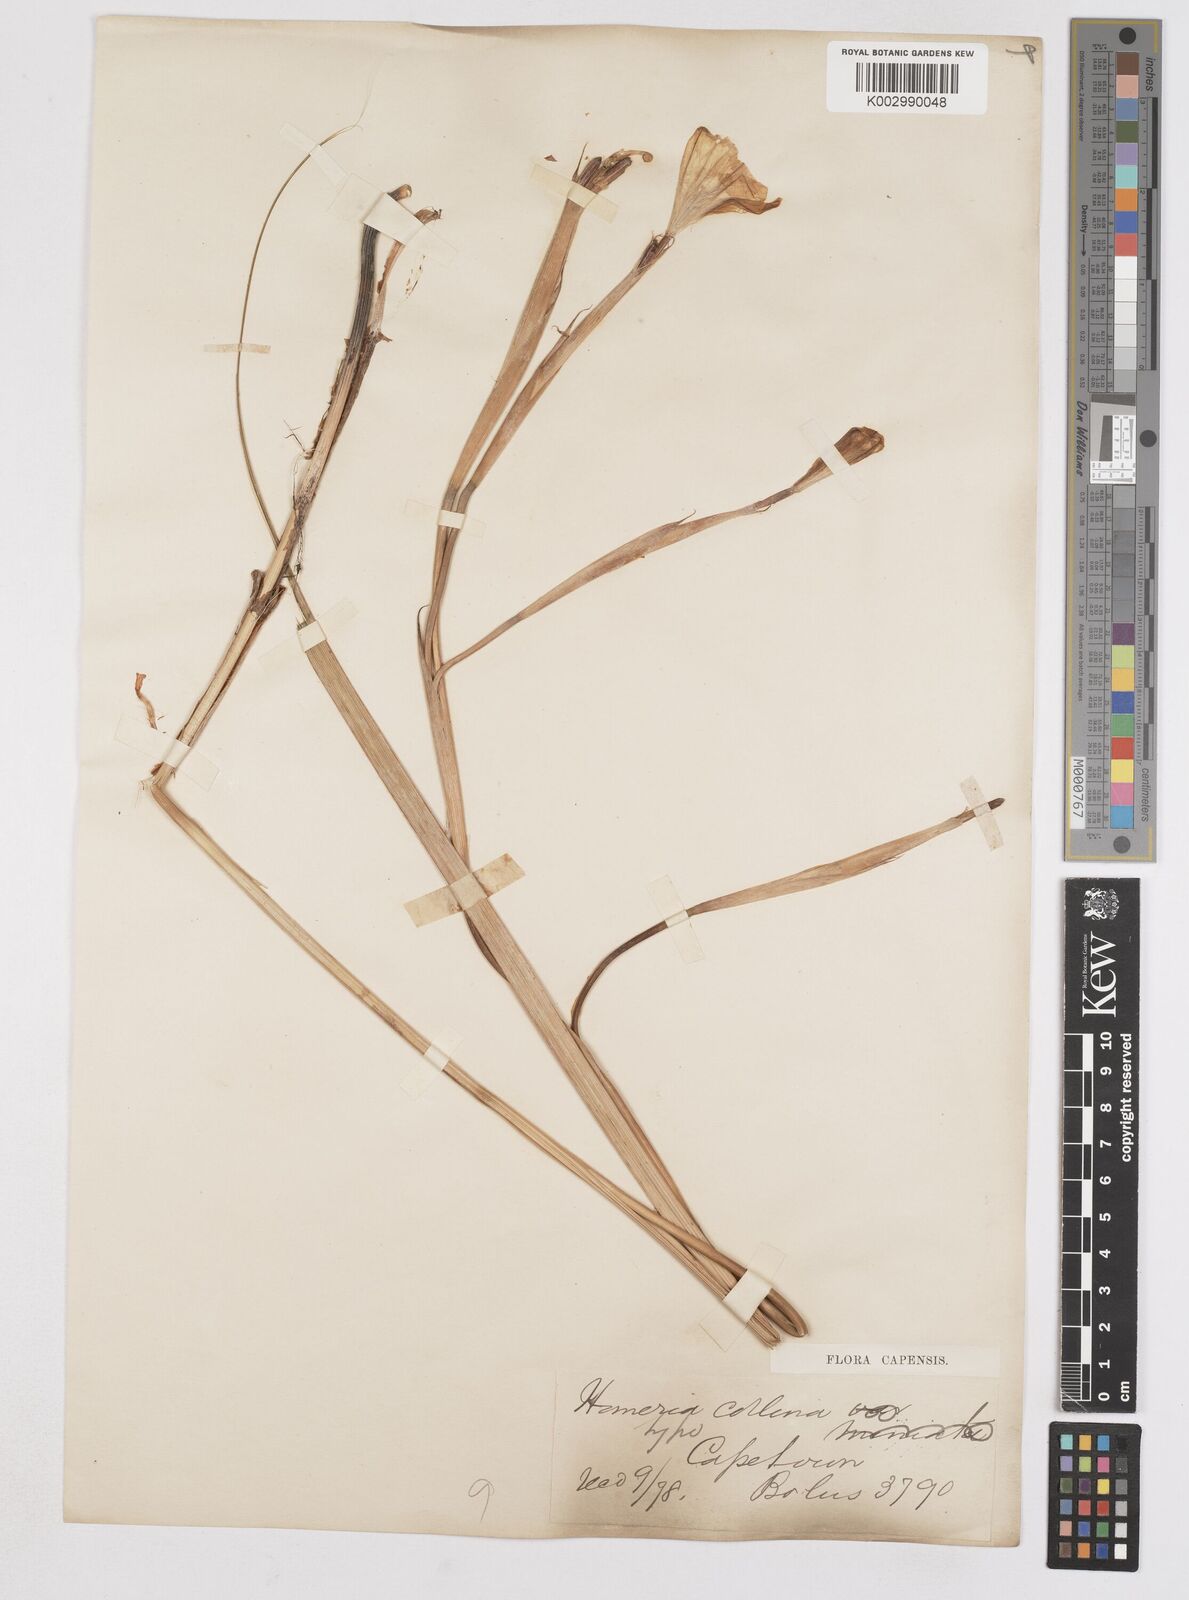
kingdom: Plantae
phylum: Tracheophyta
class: Liliopsida
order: Asparagales
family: Iridaceae
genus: Moraea
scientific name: Moraea ochroleuca
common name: Red tulp
